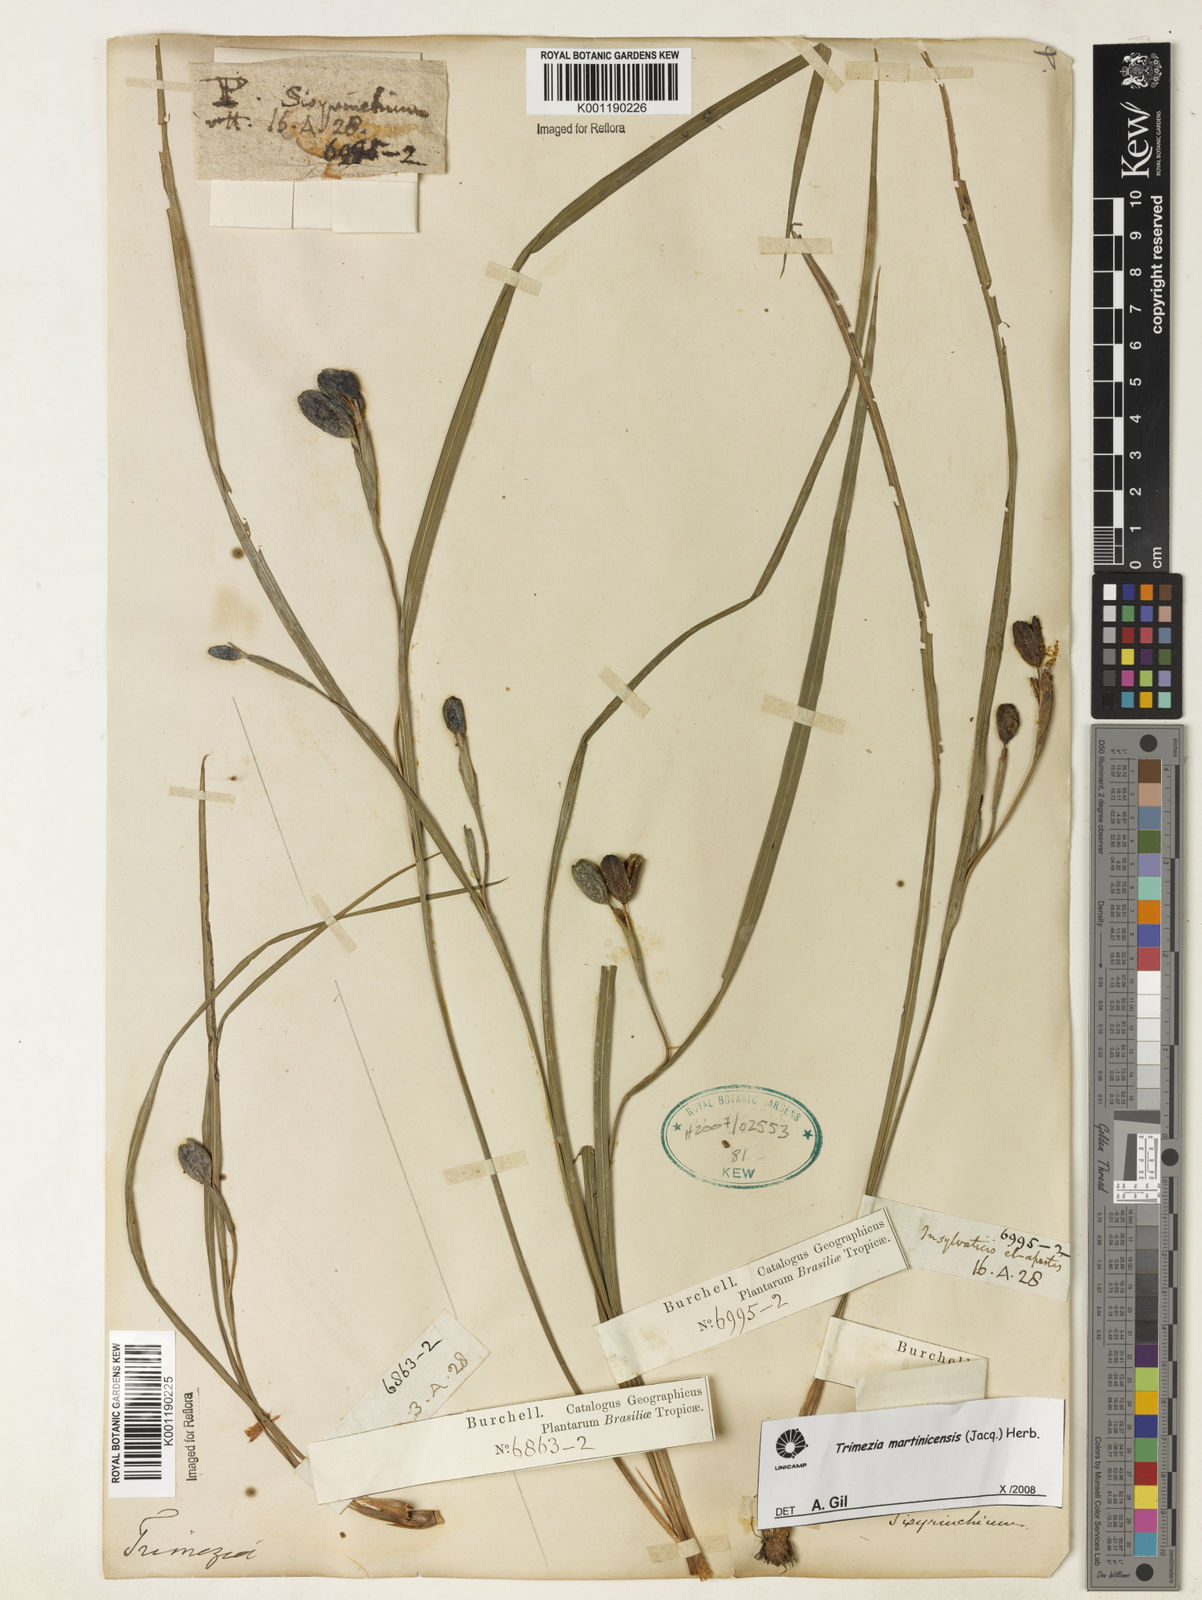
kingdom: Plantae
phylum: Tracheophyta
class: Liliopsida
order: Asparagales
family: Iridaceae
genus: Trimezia
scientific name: Trimezia martinicensis
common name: Martinique trimezia
